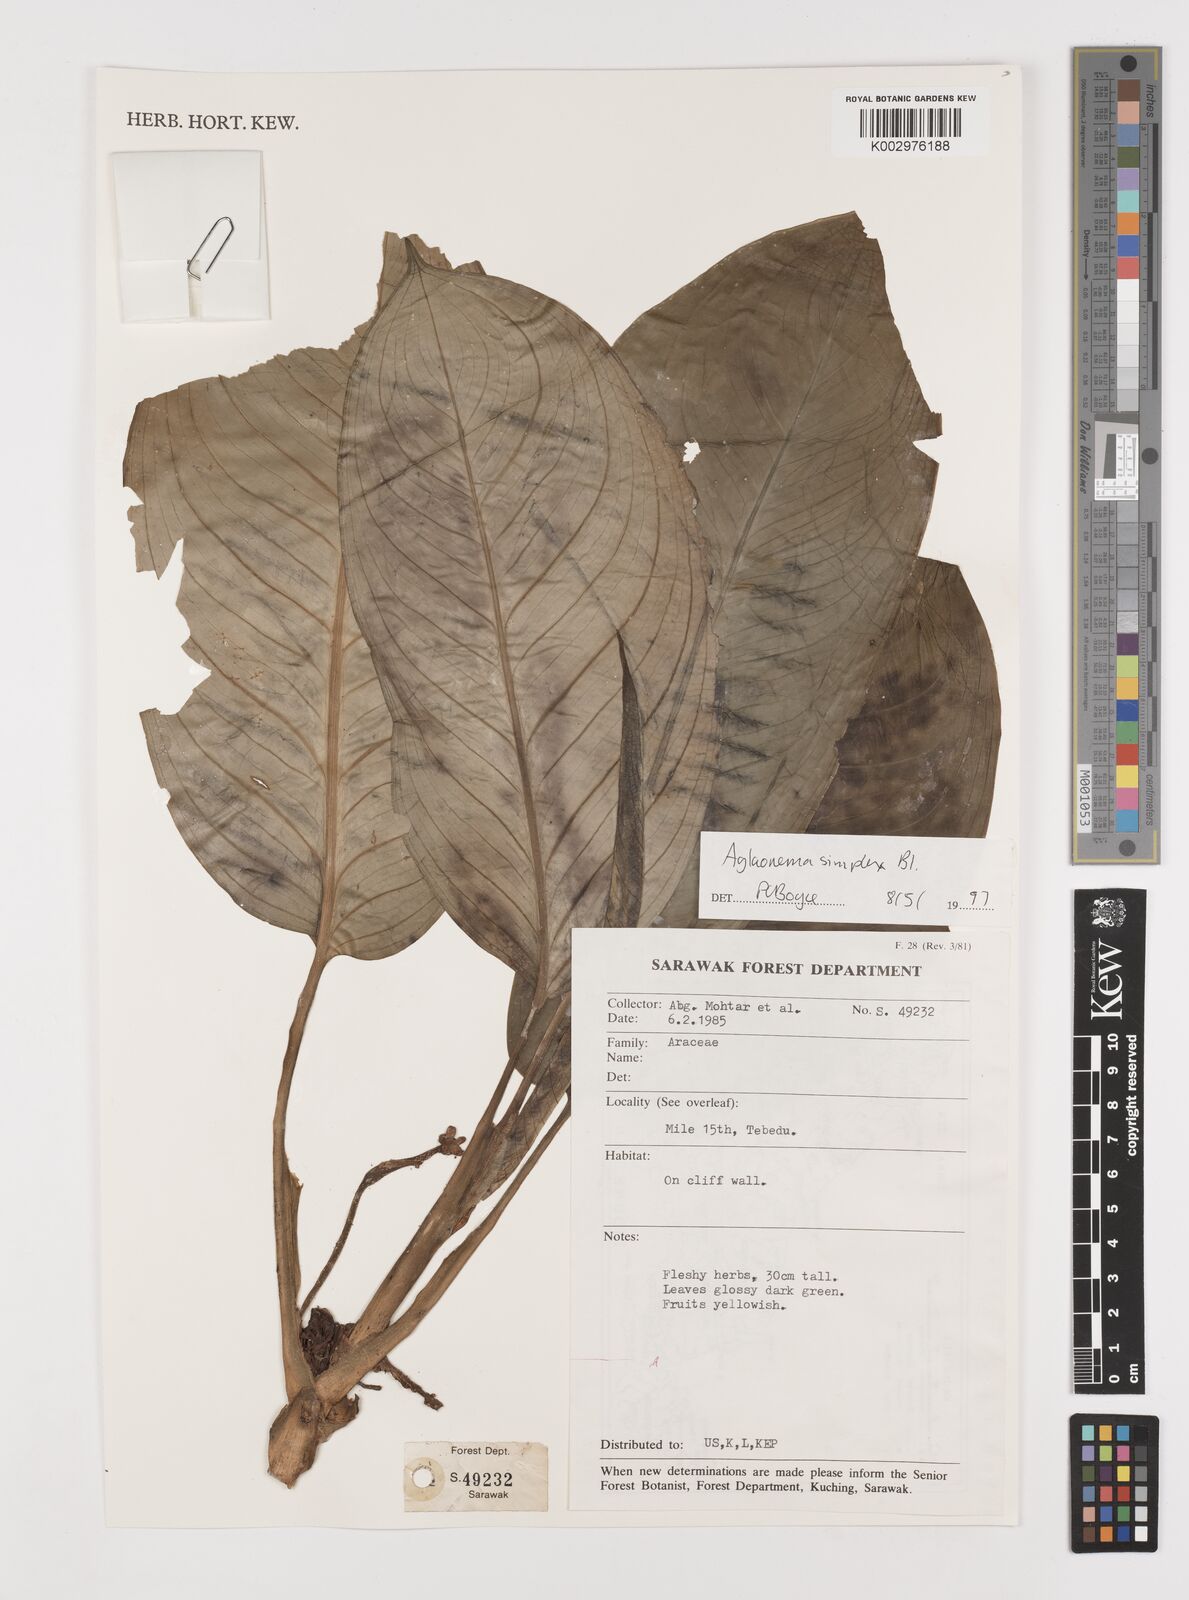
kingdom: Plantae
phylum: Tracheophyta
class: Liliopsida
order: Alismatales
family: Araceae
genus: Aglaonema
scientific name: Aglaonema simplex
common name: Malayan-sword
